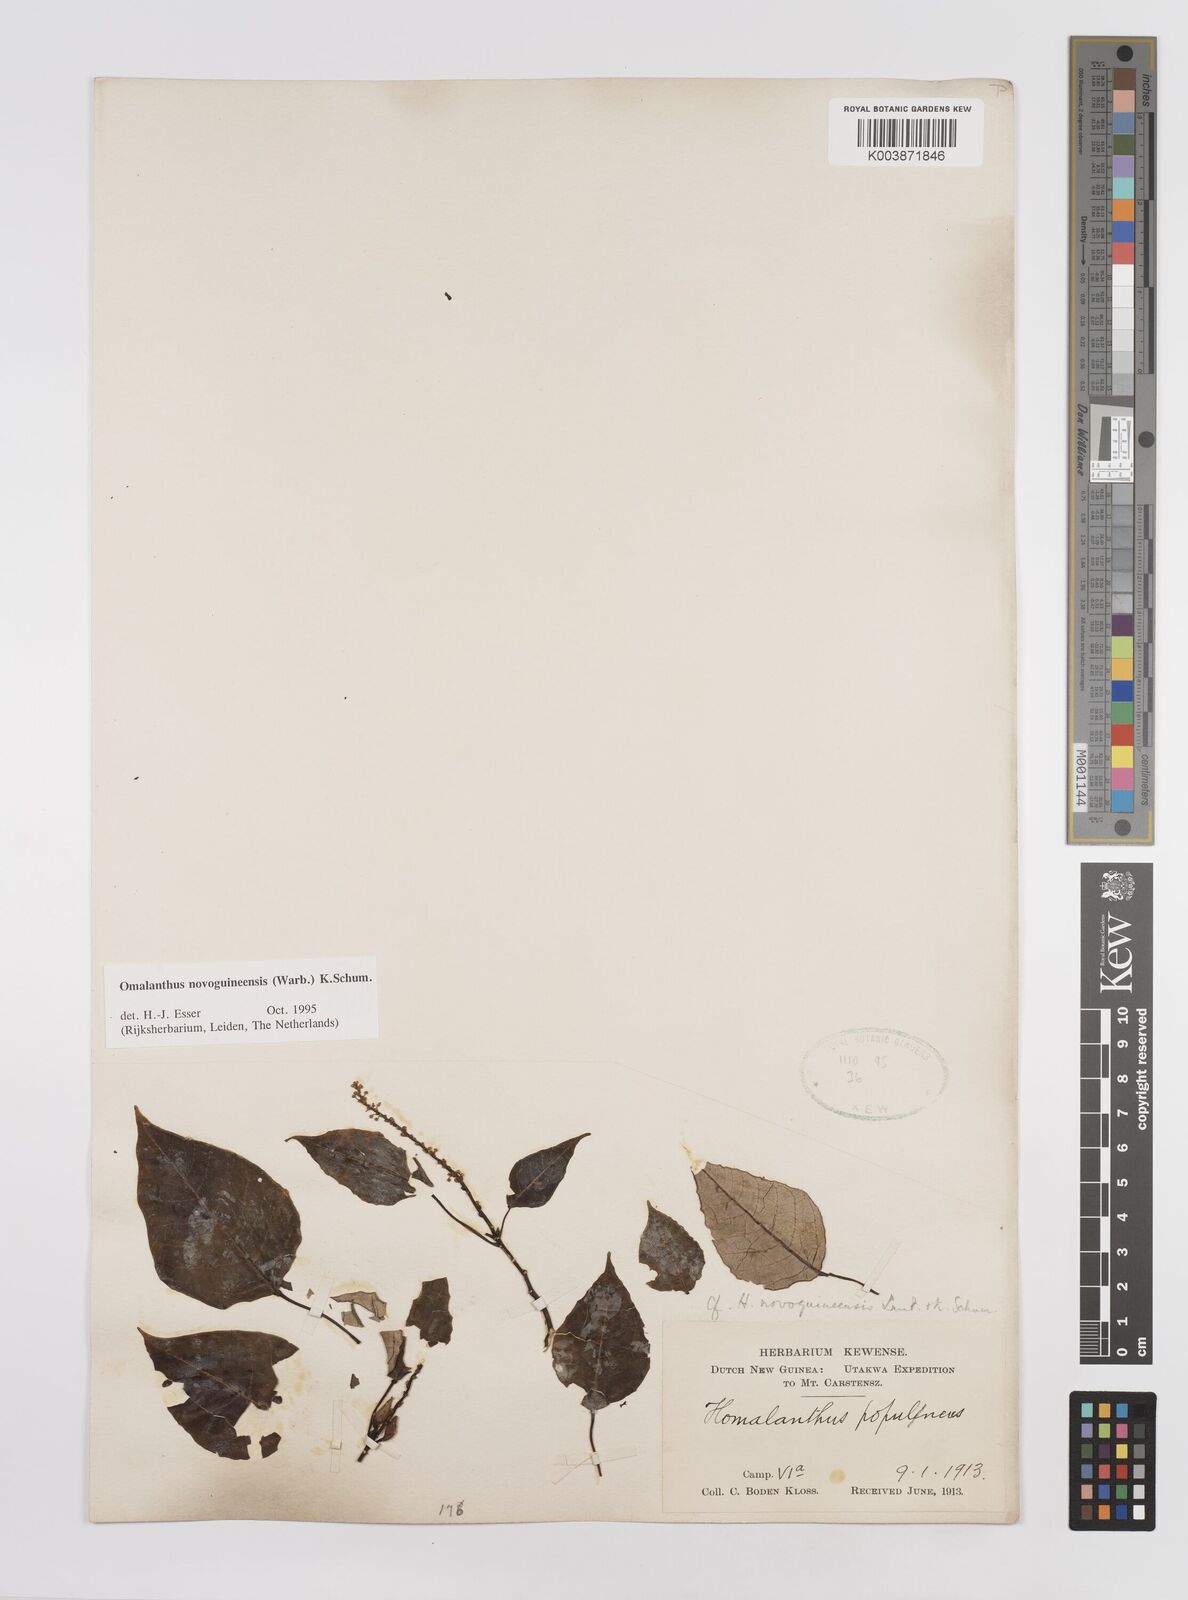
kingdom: Plantae
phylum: Tracheophyta
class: Magnoliopsida
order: Malpighiales
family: Euphorbiaceae
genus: Homalanthus
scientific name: Homalanthus novoguineensis
